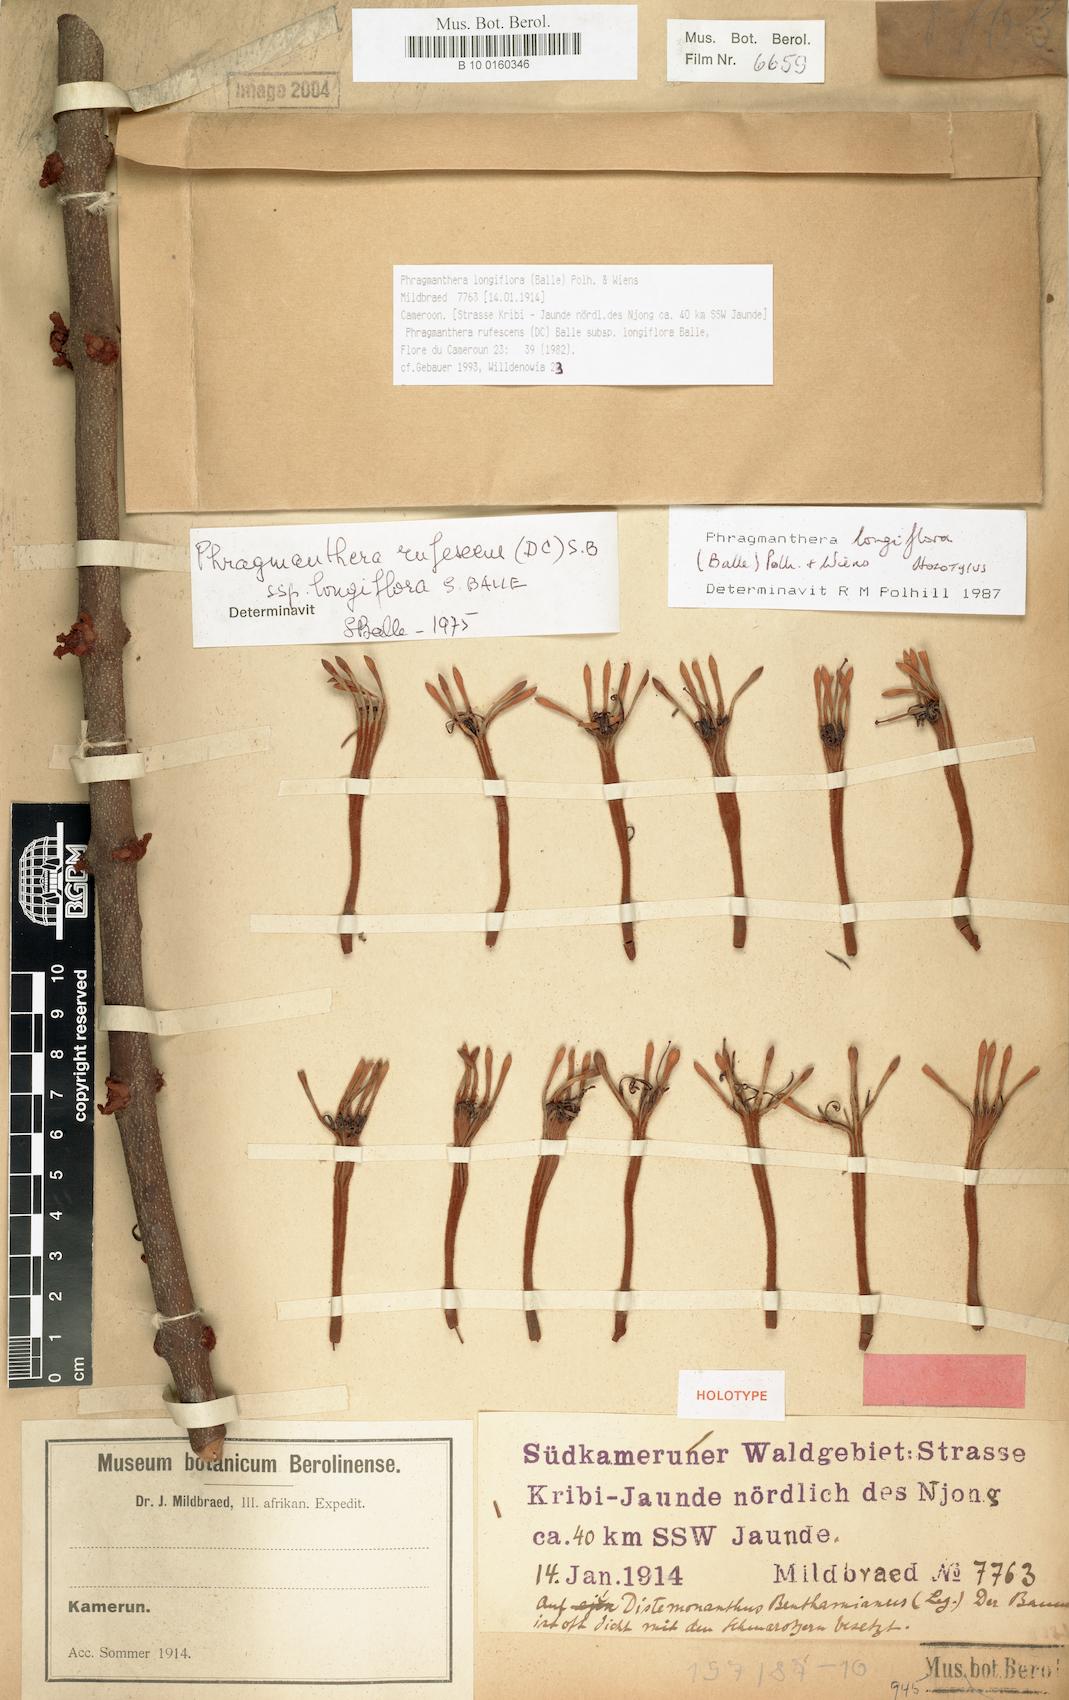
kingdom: Plantae
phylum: Tracheophyta
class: Magnoliopsida
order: Santalales
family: Loranthaceae
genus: Phragmanthera
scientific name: Phragmanthera longiflora
